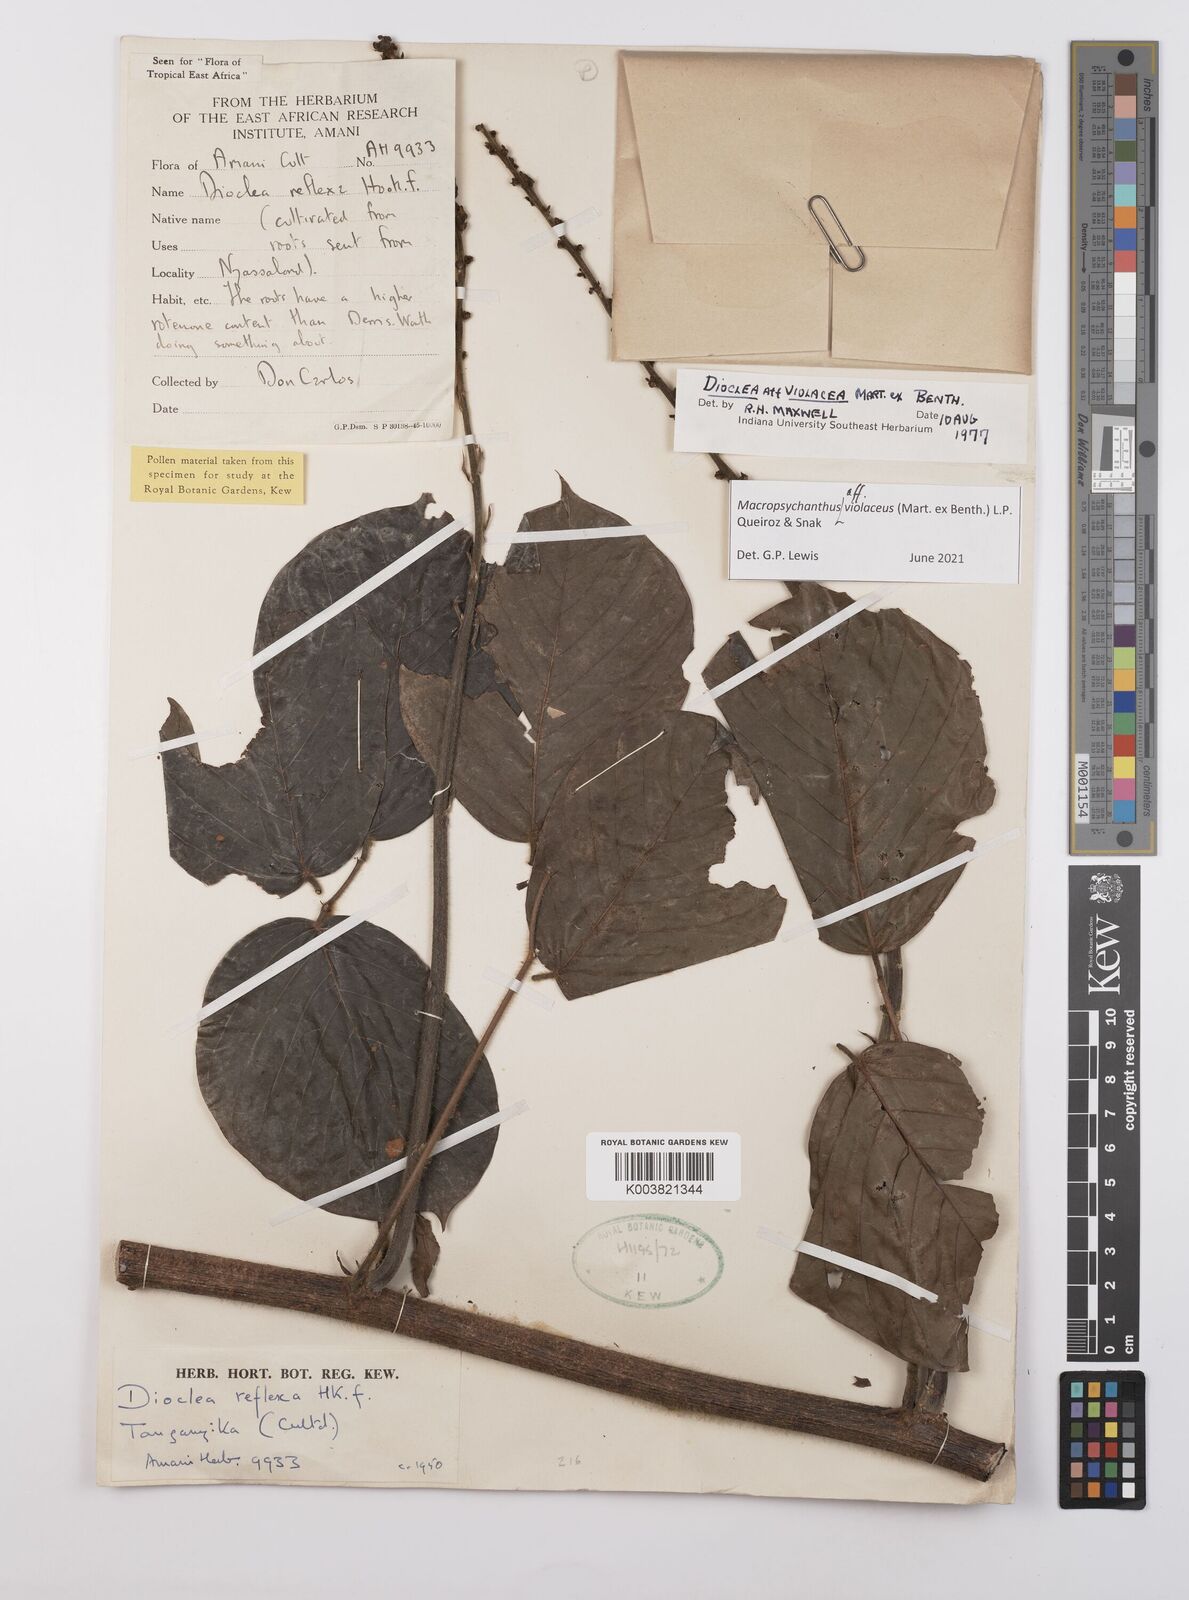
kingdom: Plantae
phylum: Tracheophyta
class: Magnoliopsida
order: Fabales
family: Fabaceae
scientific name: Fabaceae
